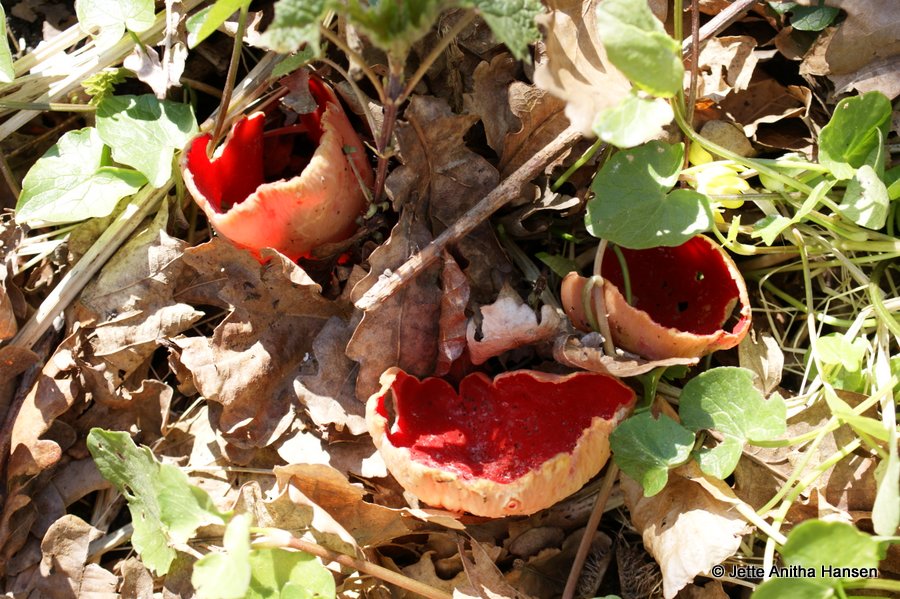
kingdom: Fungi
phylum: Ascomycota
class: Pezizomycetes
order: Pezizales
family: Sarcoscyphaceae
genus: Sarcoscypha
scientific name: Sarcoscypha austriaca
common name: krølhåret pragtbæger
